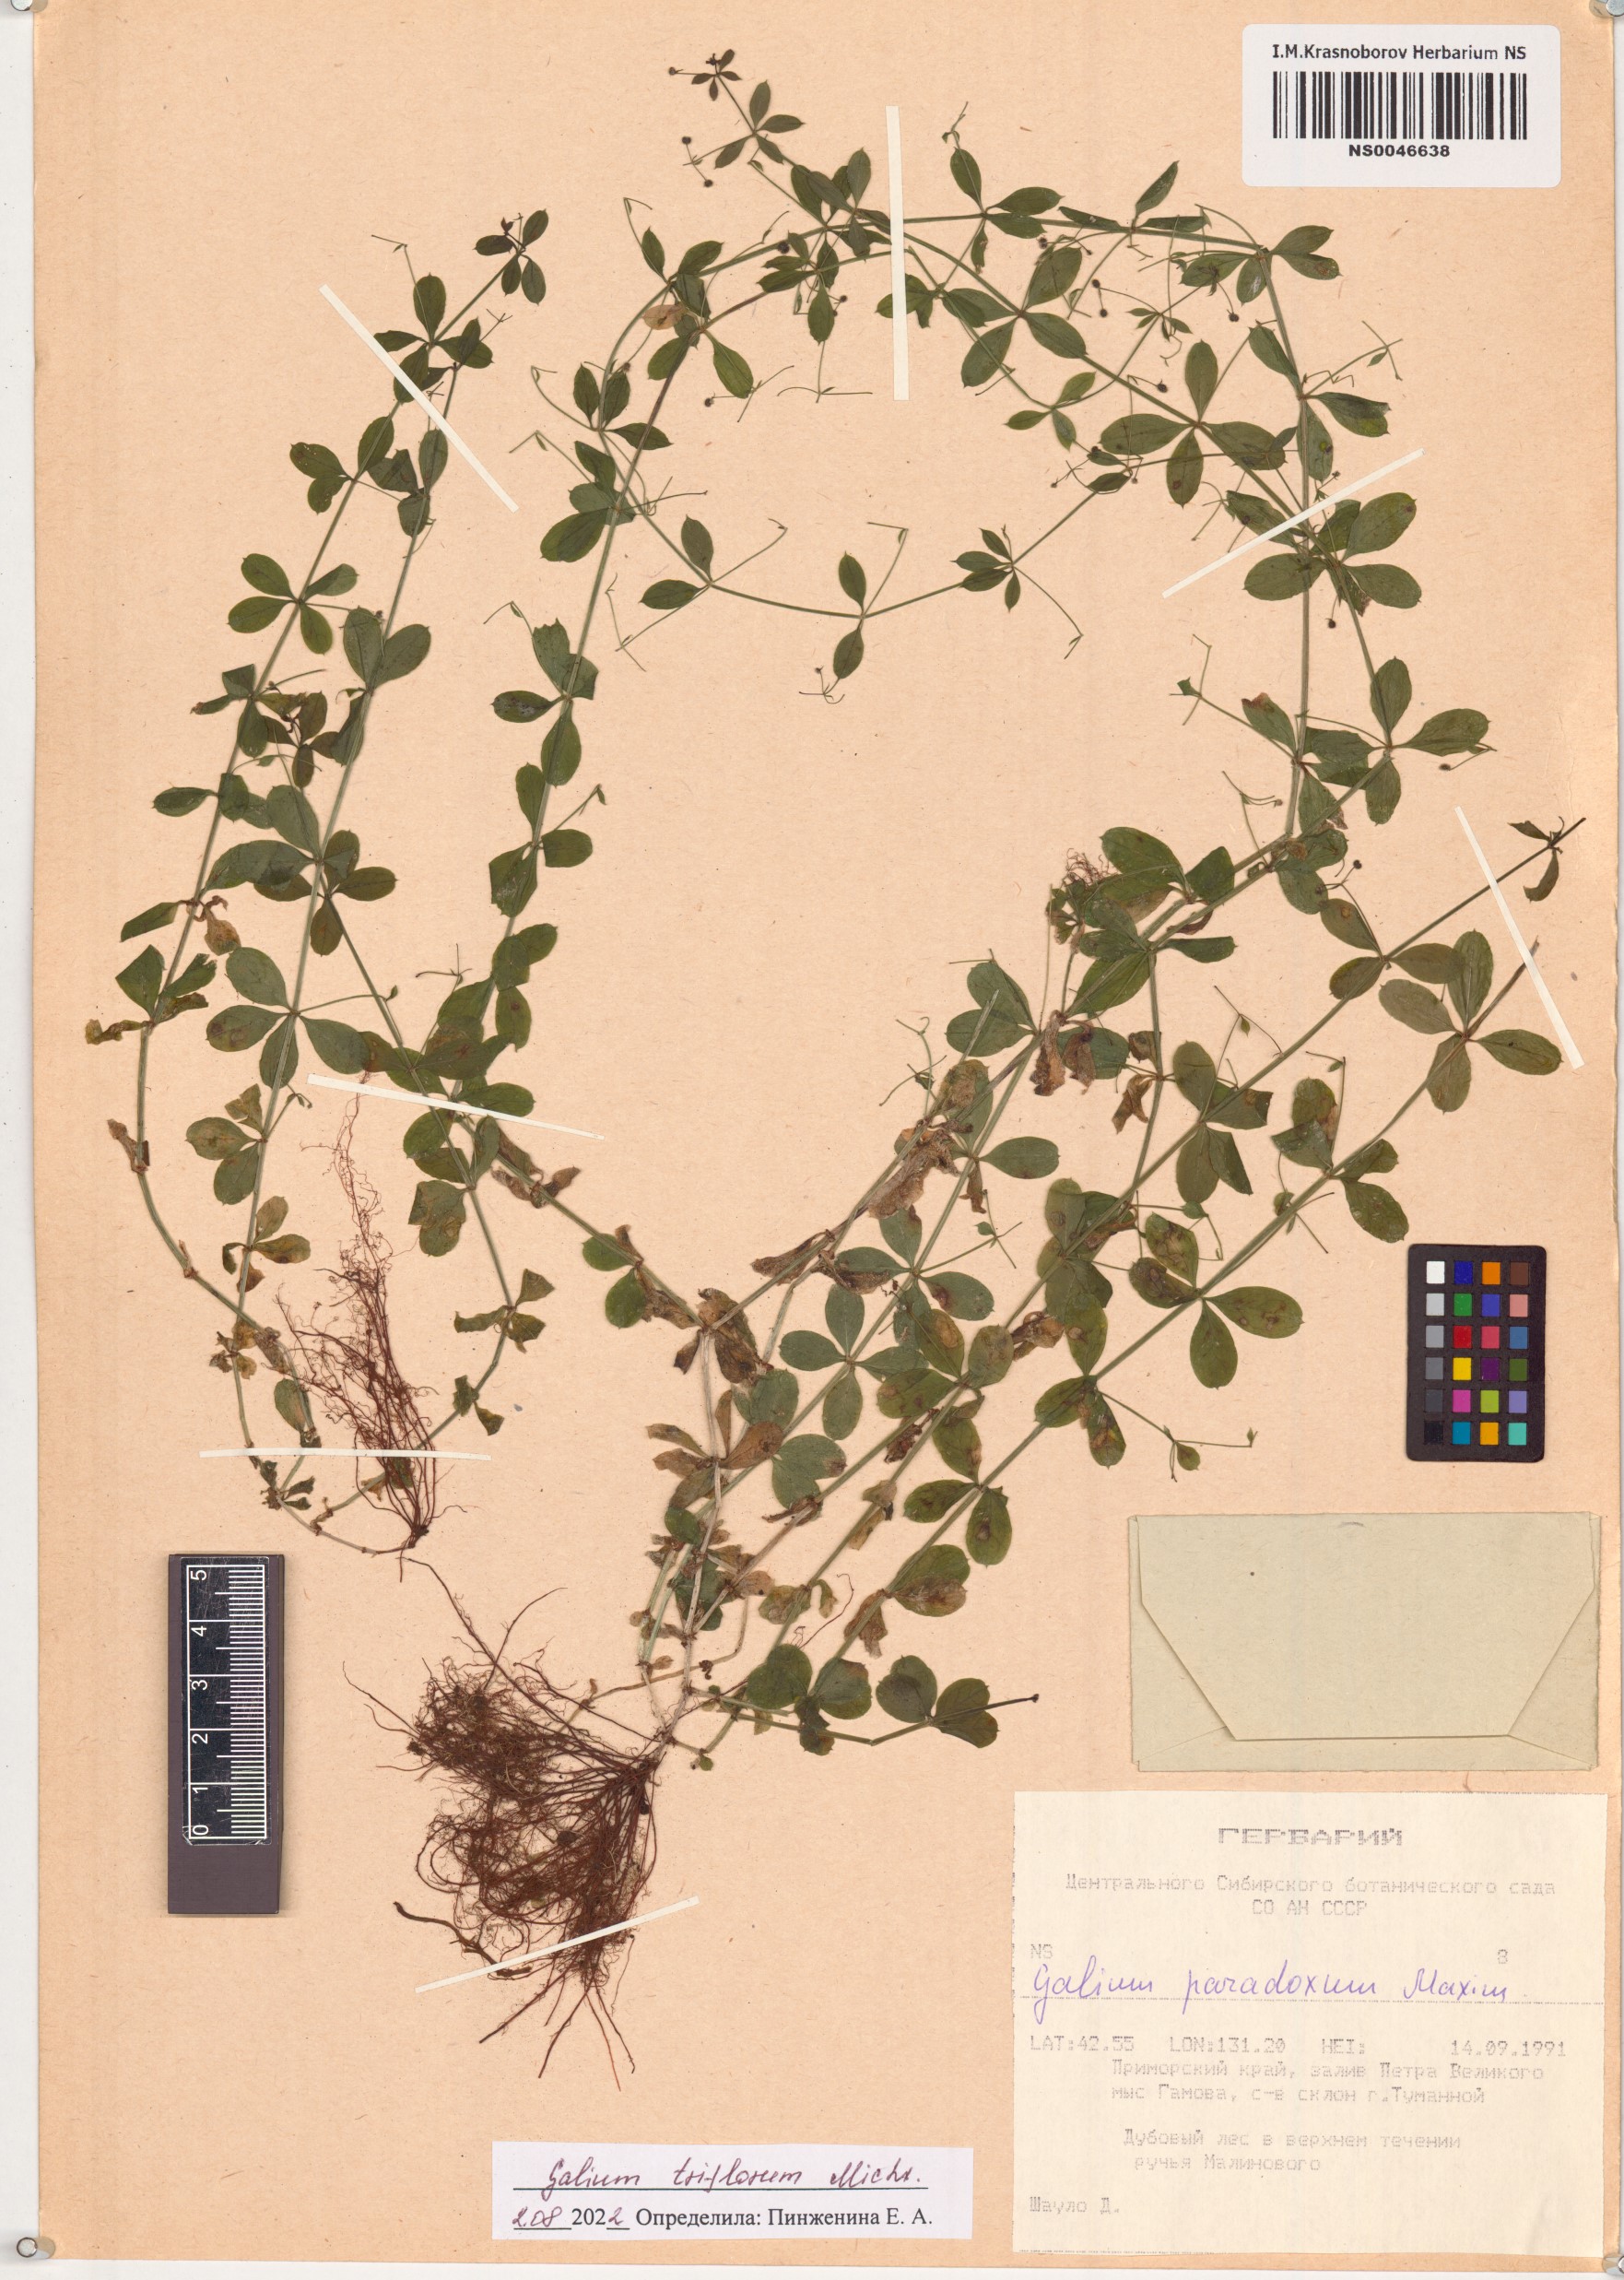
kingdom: Plantae
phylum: Tracheophyta
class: Magnoliopsida
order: Gentianales
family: Rubiaceae
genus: Galium
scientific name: Galium triflorum
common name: Fragrant bedstraw
